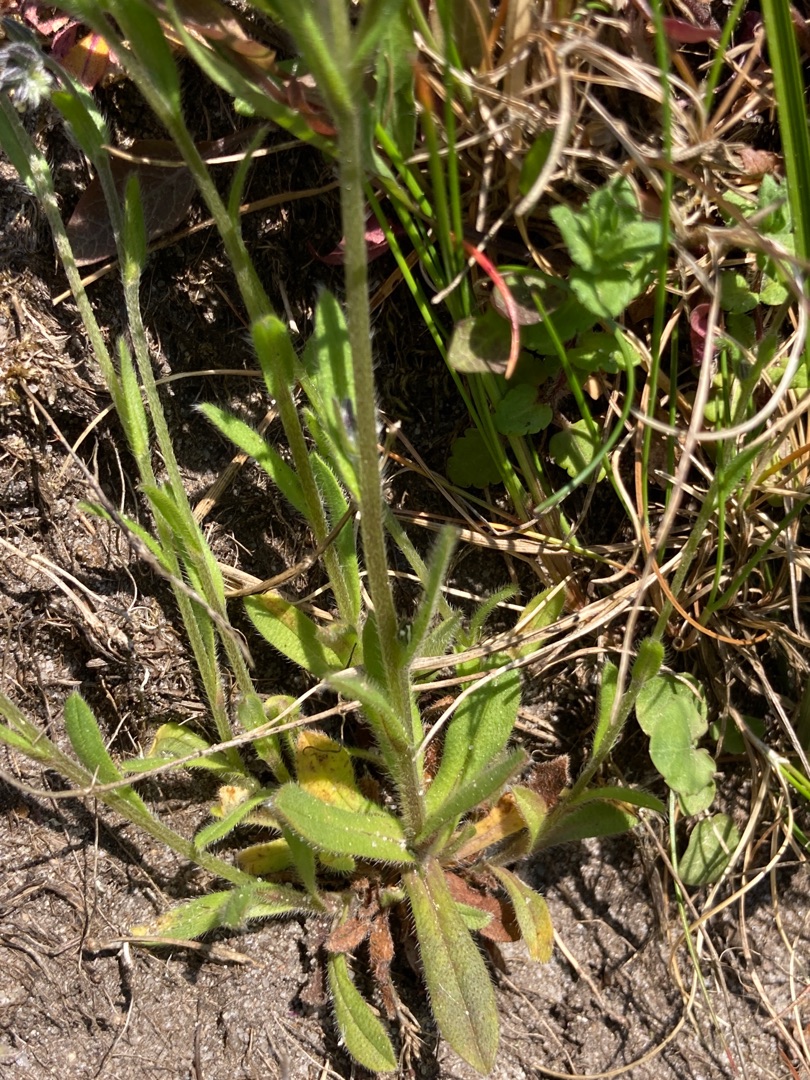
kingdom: Plantae
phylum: Tracheophyta
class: Magnoliopsida
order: Boraginales
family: Boraginaceae
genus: Myosotis
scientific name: Myosotis discolor
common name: Forskelligfarvet forglemmigej
